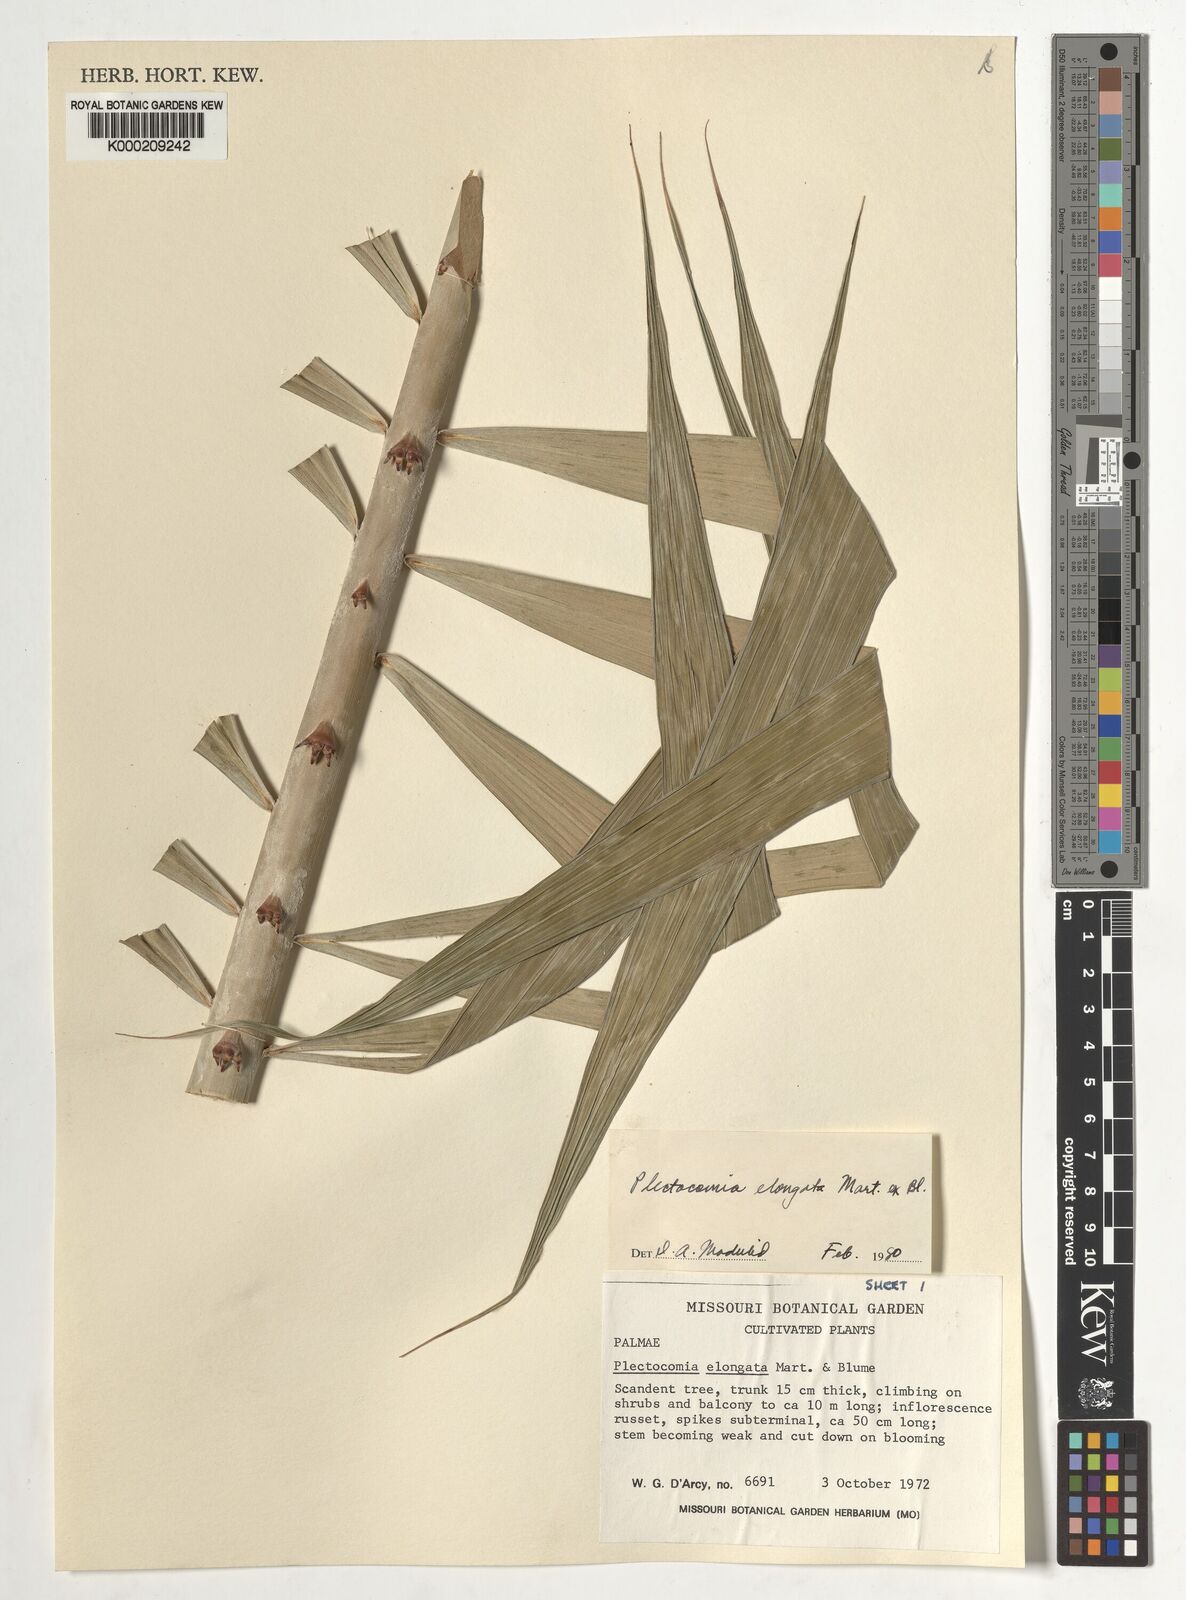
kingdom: Plantae
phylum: Tracheophyta
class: Liliopsida
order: Arecales
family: Arecaceae
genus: Plectocomia
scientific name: Plectocomia elongata
